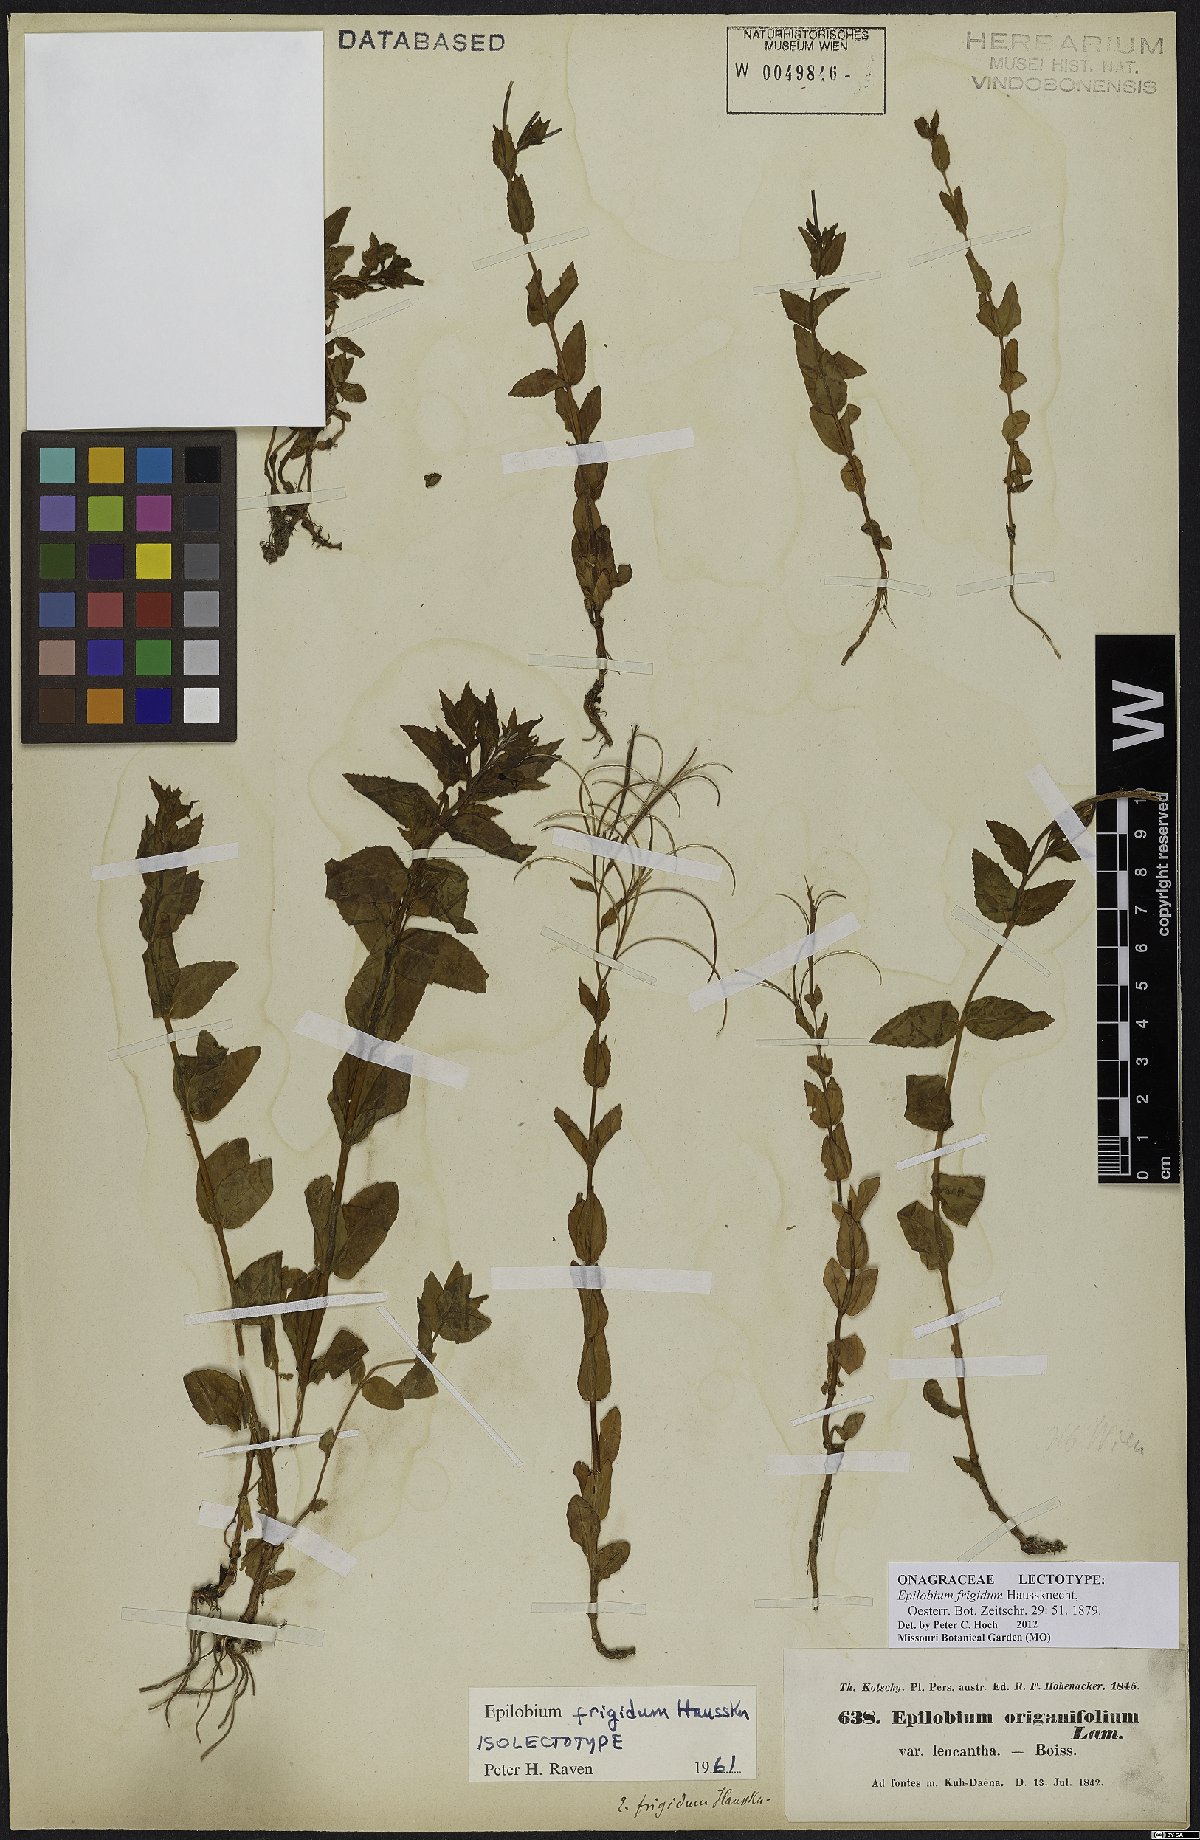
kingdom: Plantae
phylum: Tracheophyta
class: Magnoliopsida
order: Myrtales
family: Onagraceae
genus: Epilobium
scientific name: Epilobium ponticum
